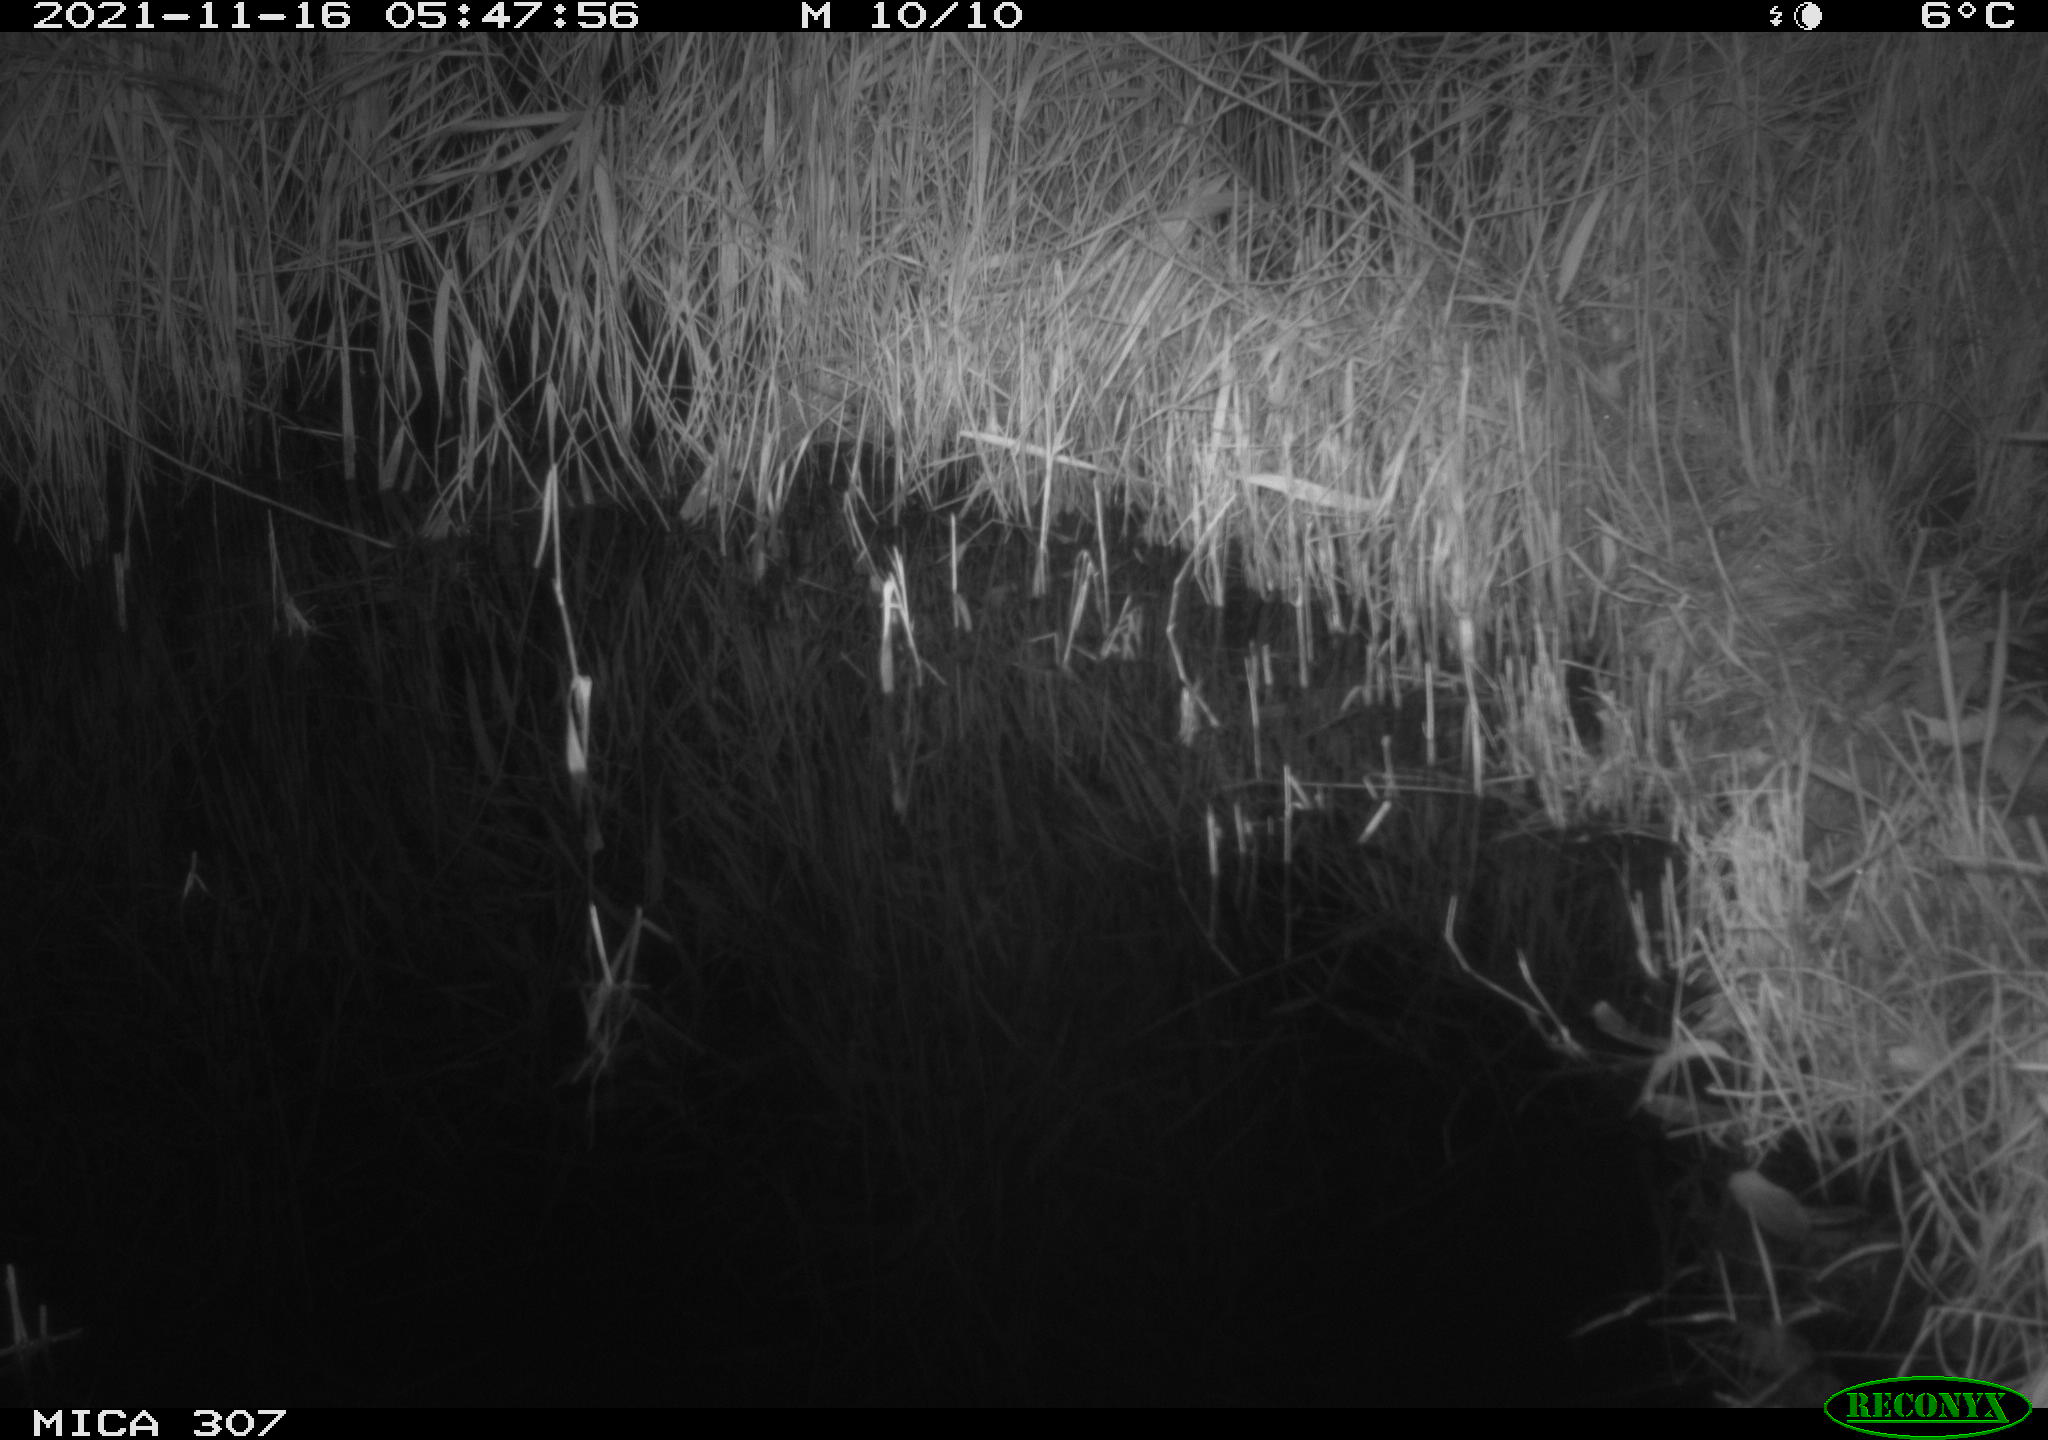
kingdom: Animalia
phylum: Chordata
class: Mammalia
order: Rodentia
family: Muridae
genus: Rattus
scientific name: Rattus norvegicus
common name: Brown rat
